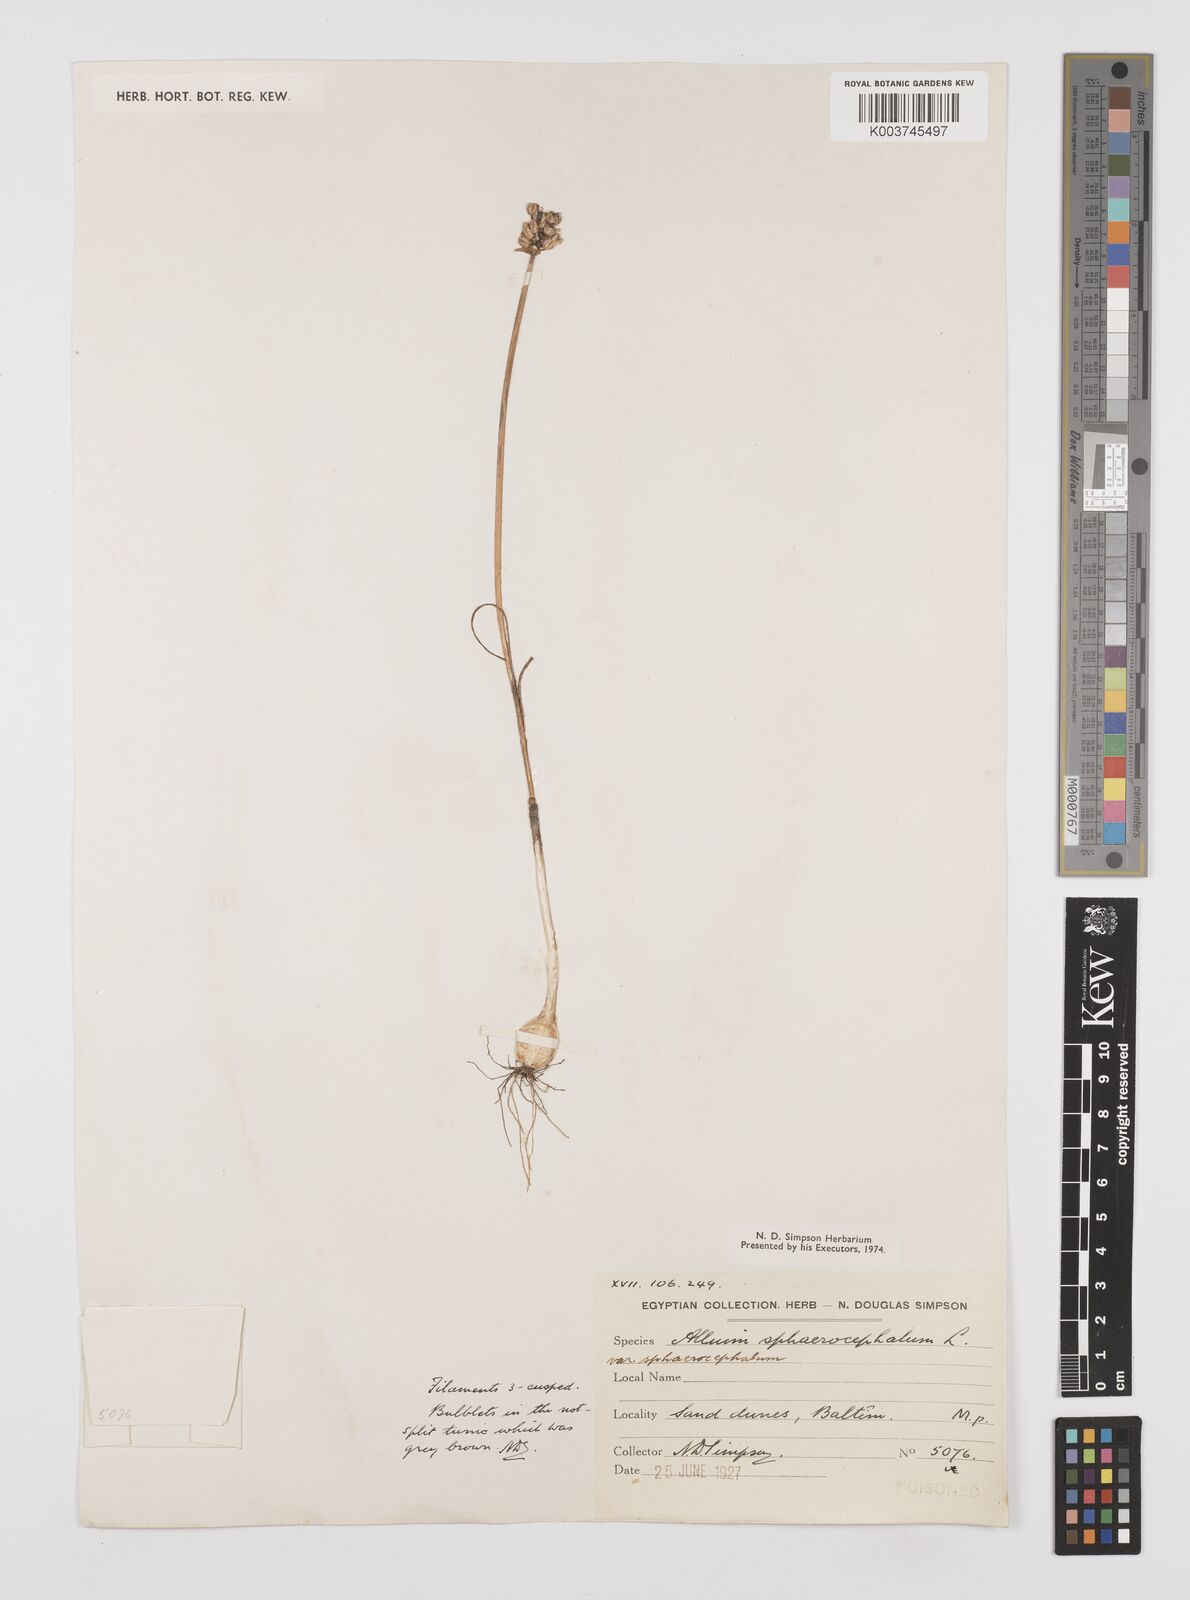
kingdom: Plantae
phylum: Tracheophyta
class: Liliopsida
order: Asparagales
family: Amaryllidaceae
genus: Allium
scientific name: Allium
